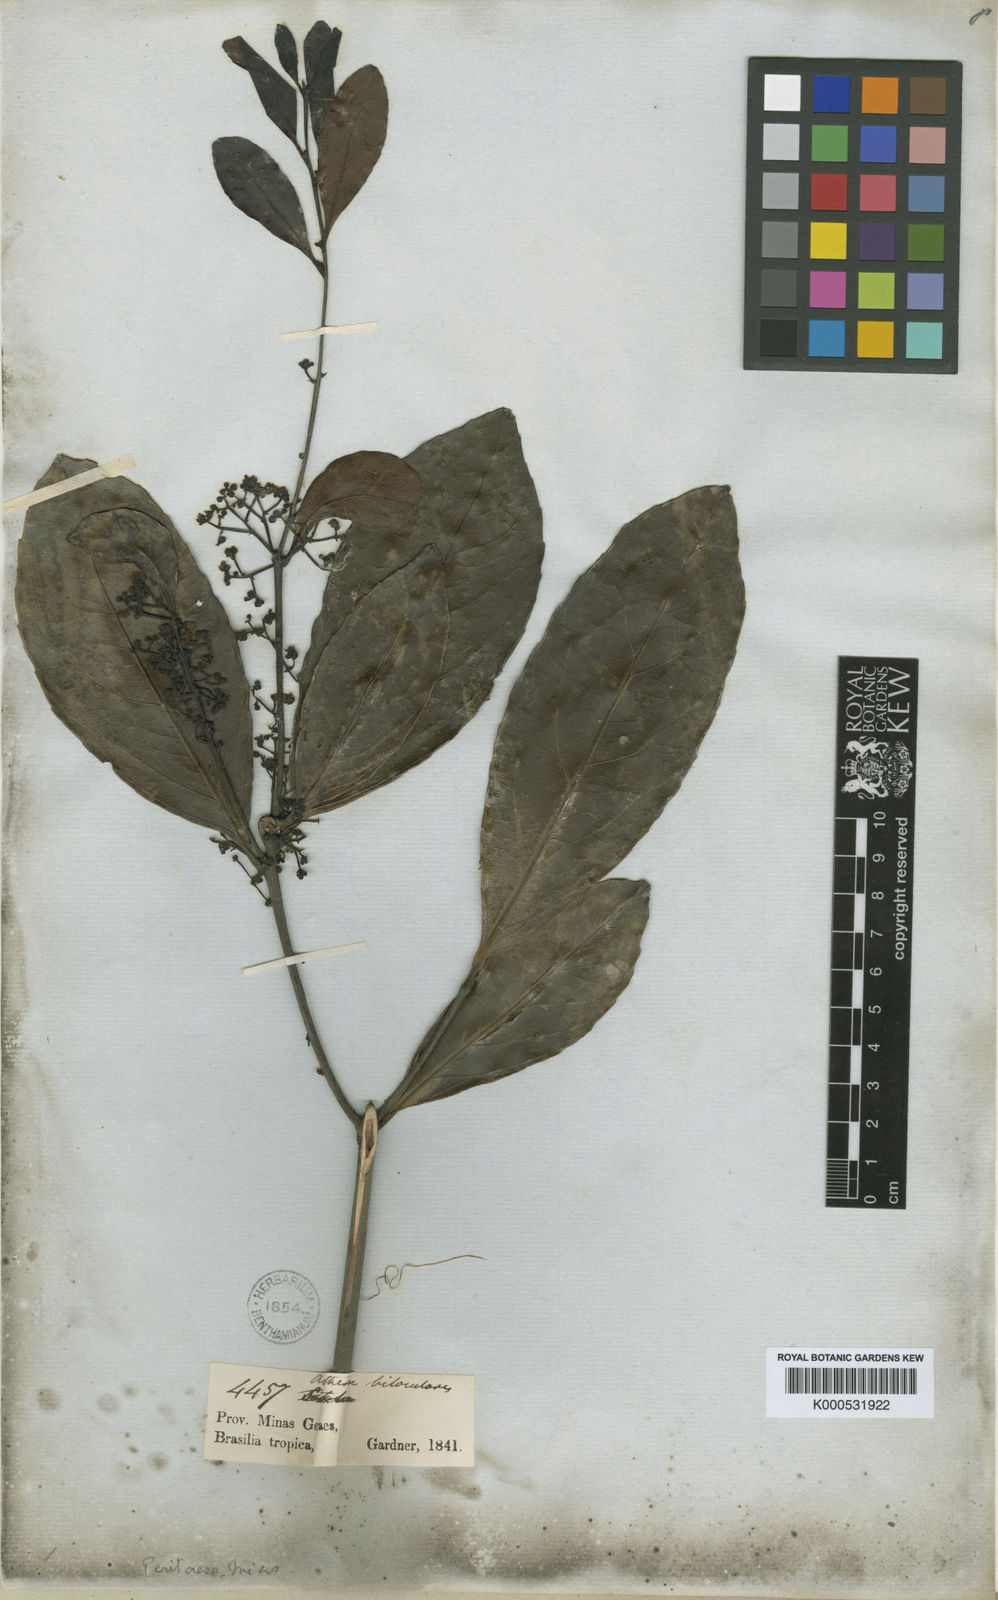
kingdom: Plantae
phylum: Tracheophyta
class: Magnoliopsida
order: Celastrales
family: Celastraceae
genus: Peritassa
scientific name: Peritassa campestris
